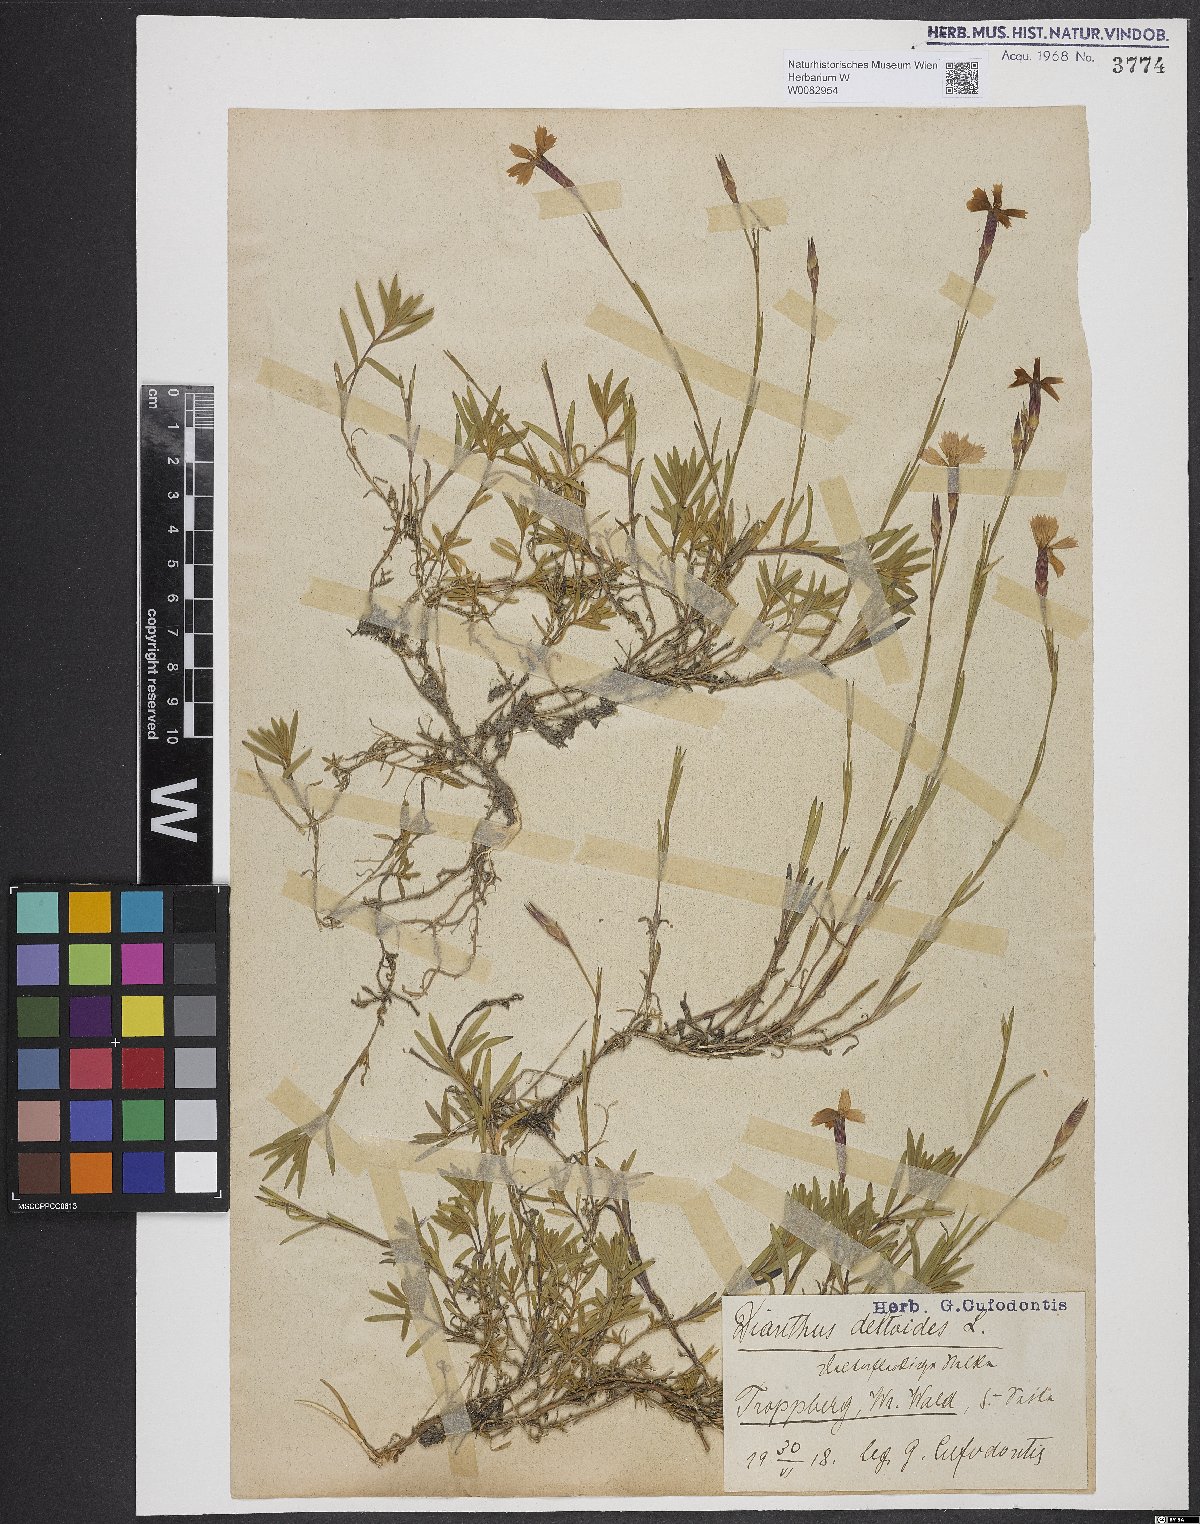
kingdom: Plantae
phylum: Tracheophyta
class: Magnoliopsida
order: Caryophyllales
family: Caryophyllaceae
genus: Dianthus
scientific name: Dianthus deltoides
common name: Maiden pink
